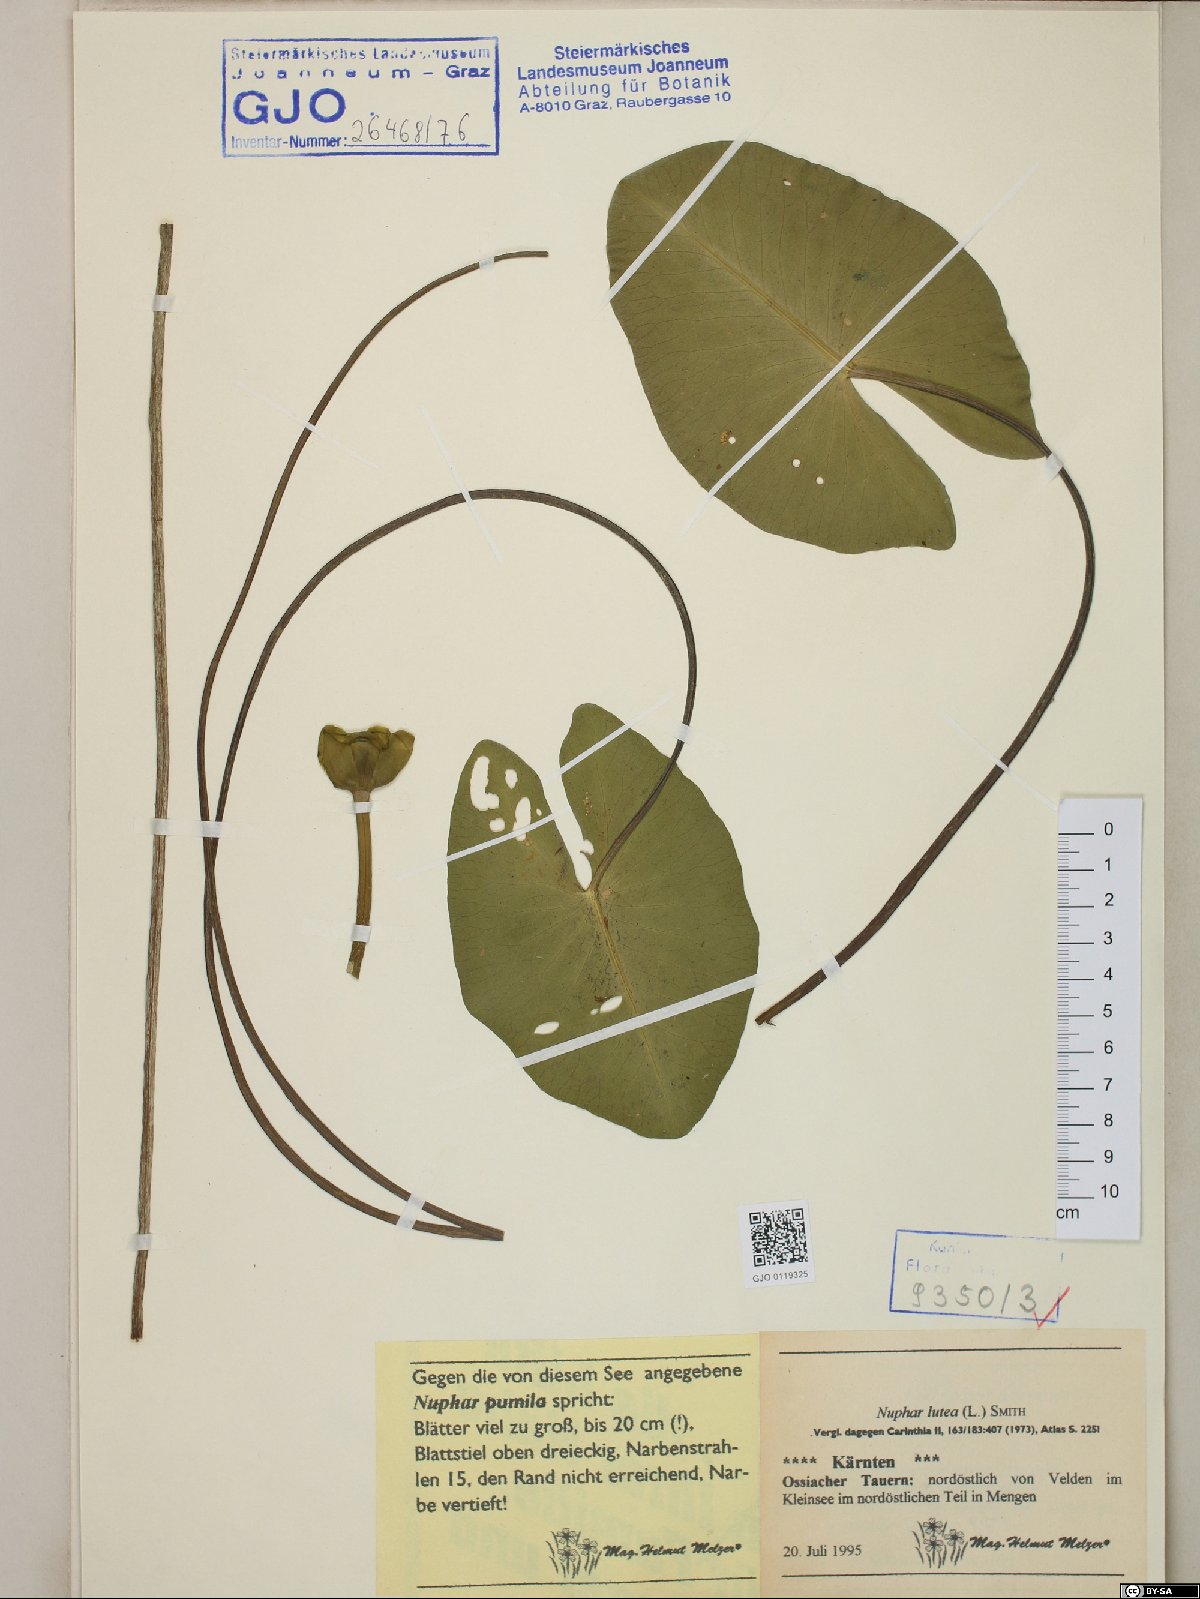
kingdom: Plantae
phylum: Tracheophyta
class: Magnoliopsida
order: Nymphaeales
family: Nymphaeaceae
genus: Nuphar
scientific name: Nuphar lutea
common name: Yellow water-lily
